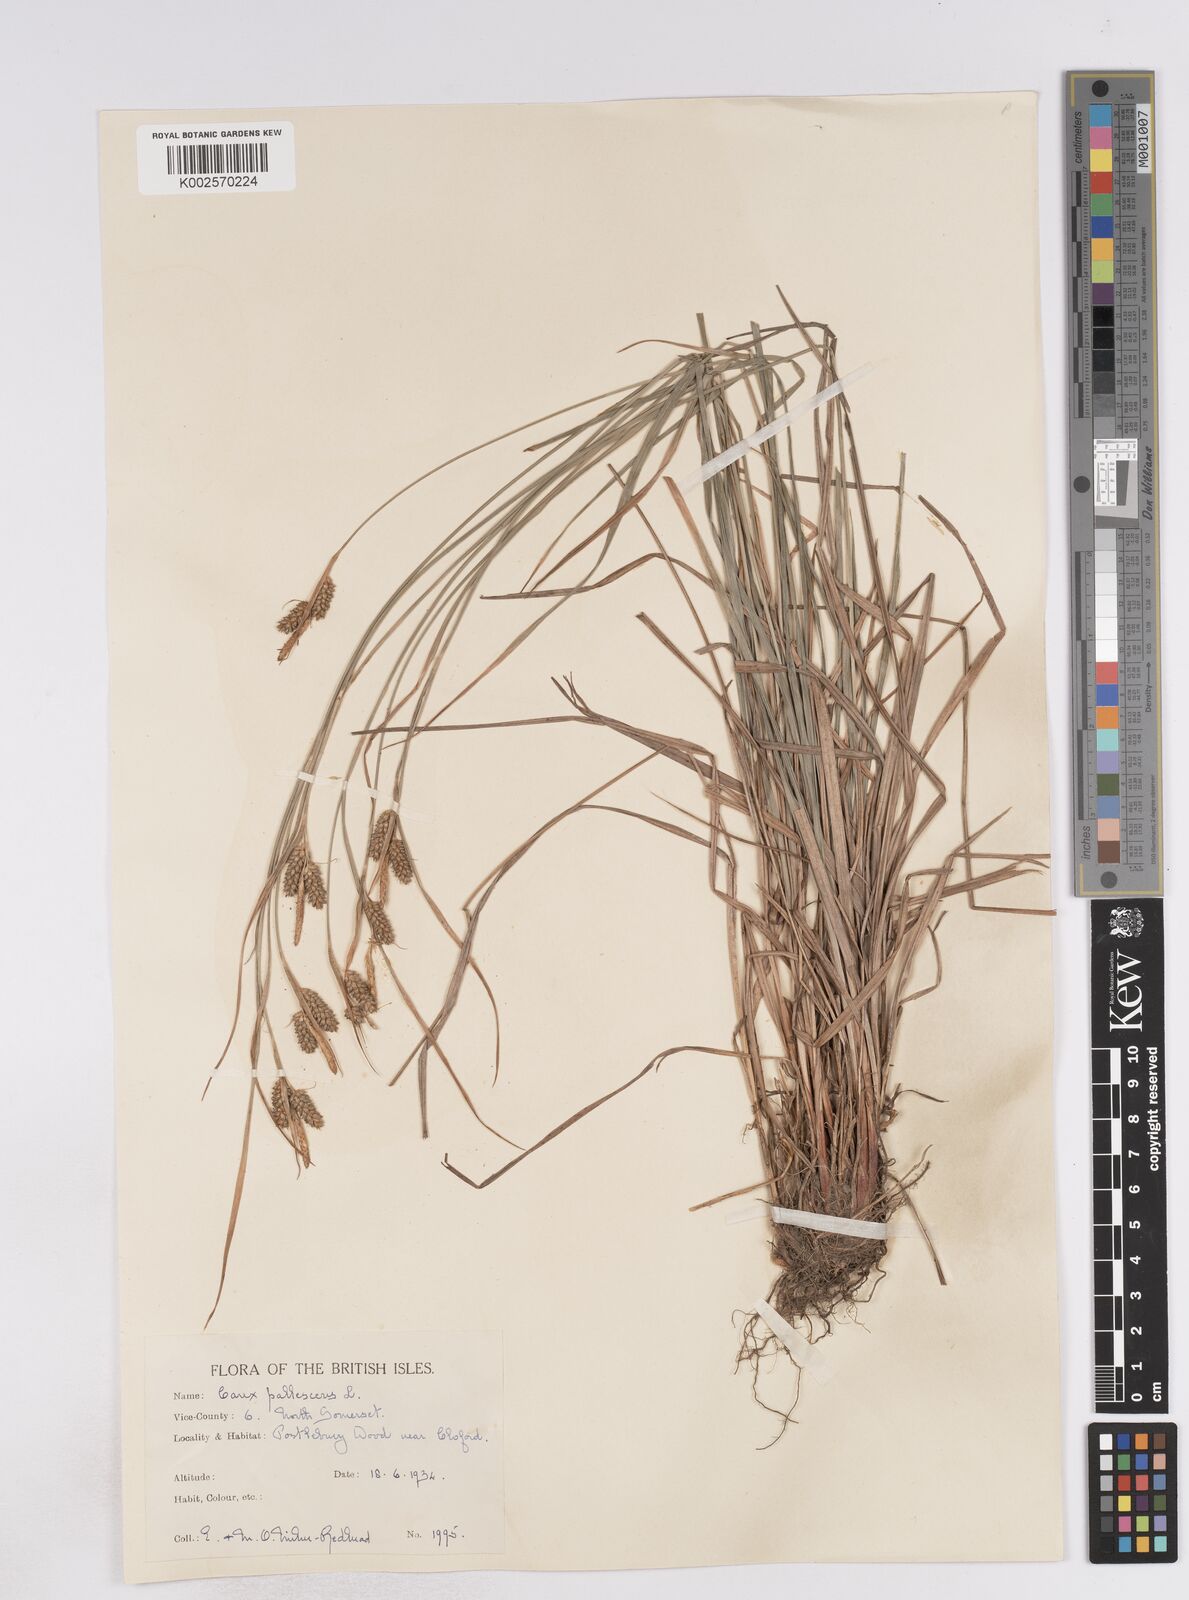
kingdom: Plantae
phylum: Tracheophyta
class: Liliopsida
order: Poales
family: Cyperaceae
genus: Carex
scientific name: Carex pallescens
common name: Pale sedge
